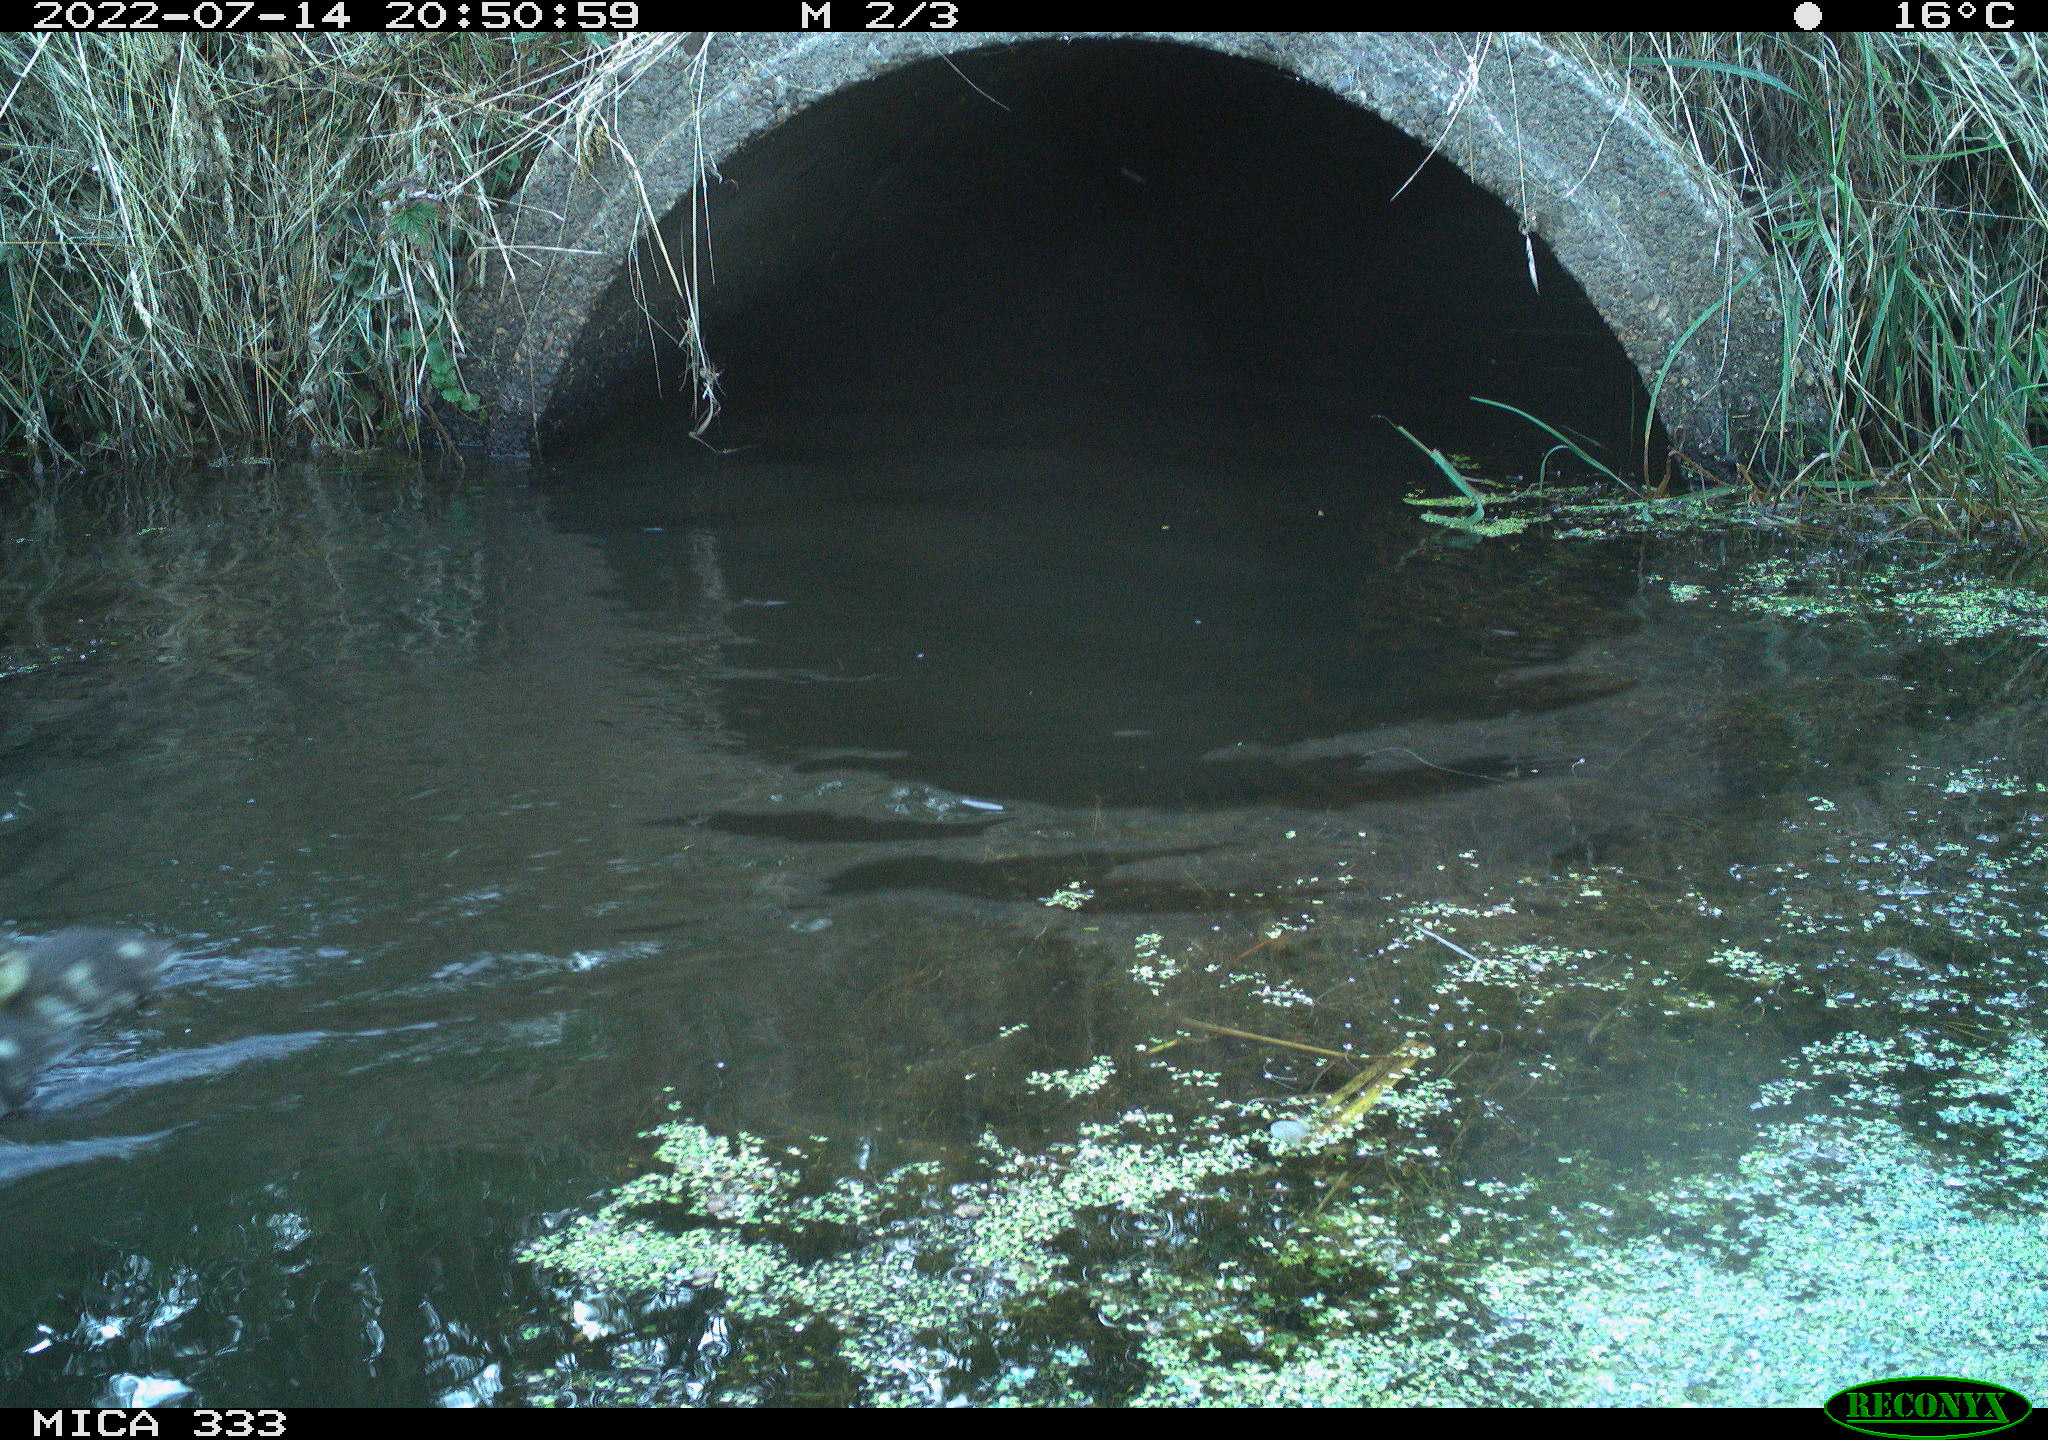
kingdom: Animalia
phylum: Chordata
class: Aves
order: Anseriformes
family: Anatidae
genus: Anas
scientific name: Anas platyrhynchos
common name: Mallard
